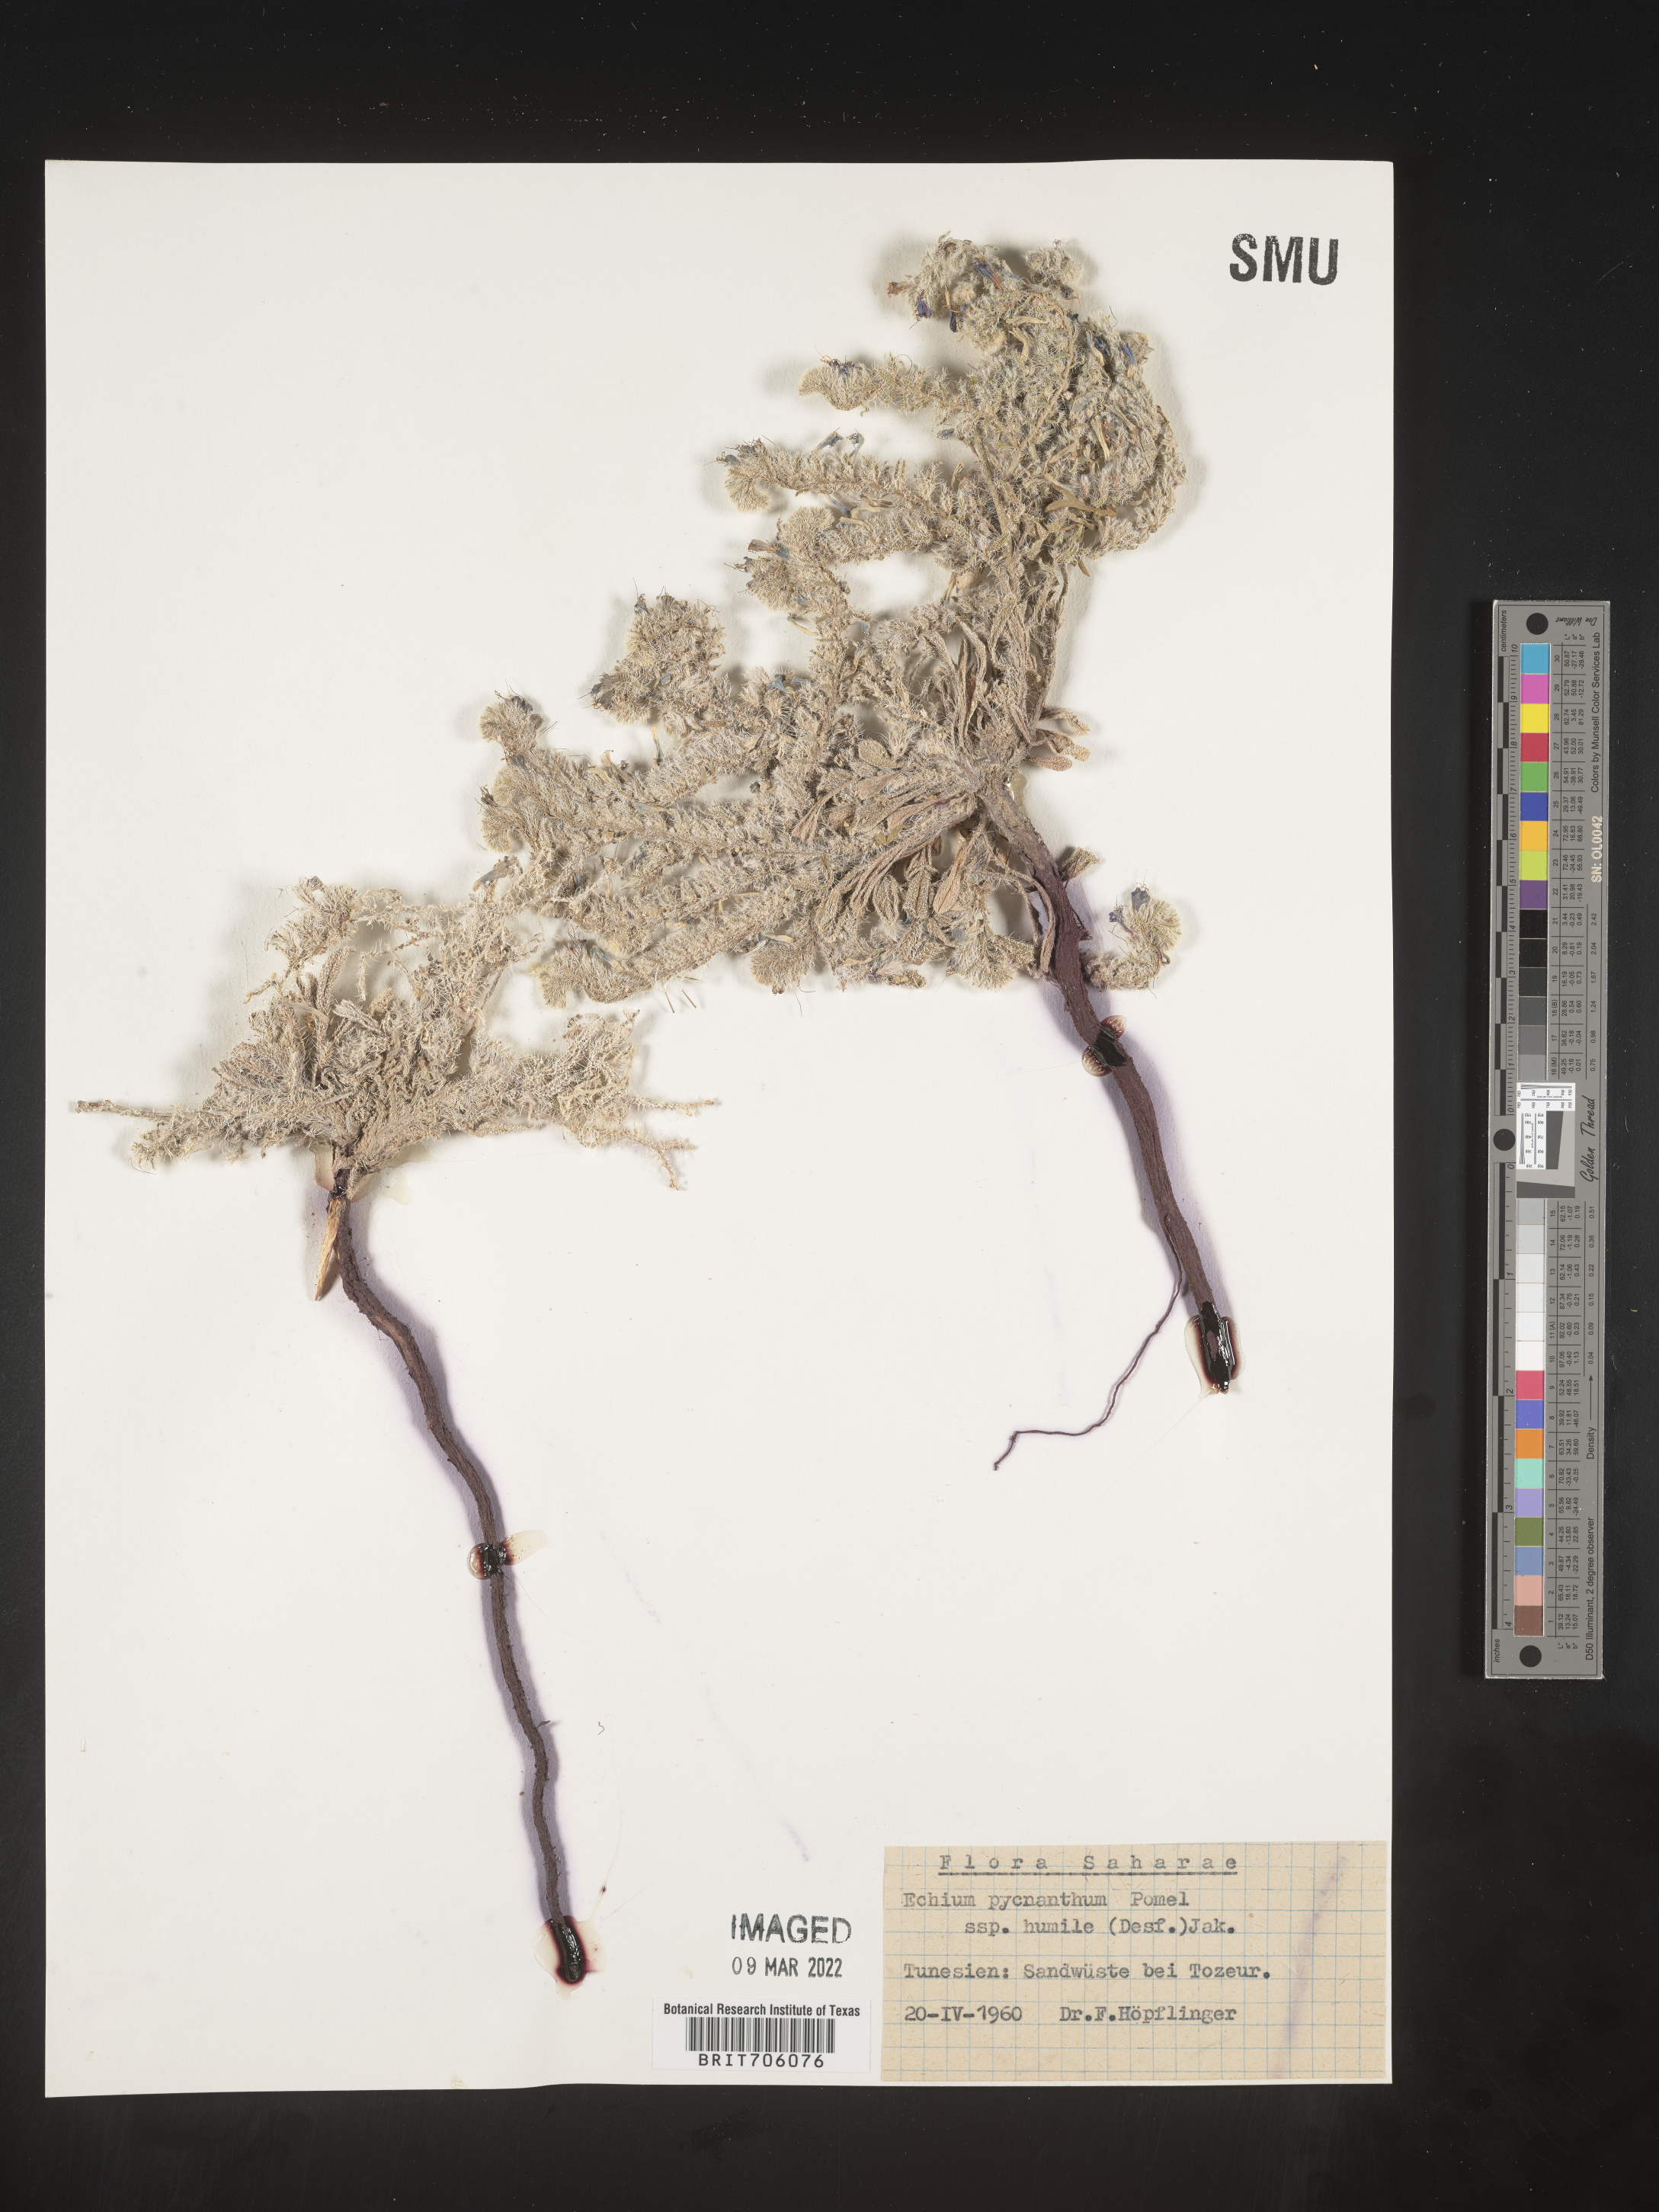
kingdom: Plantae
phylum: Tracheophyta
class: Magnoliopsida
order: Boraginales
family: Boraginaceae
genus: Echium
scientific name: Echium
